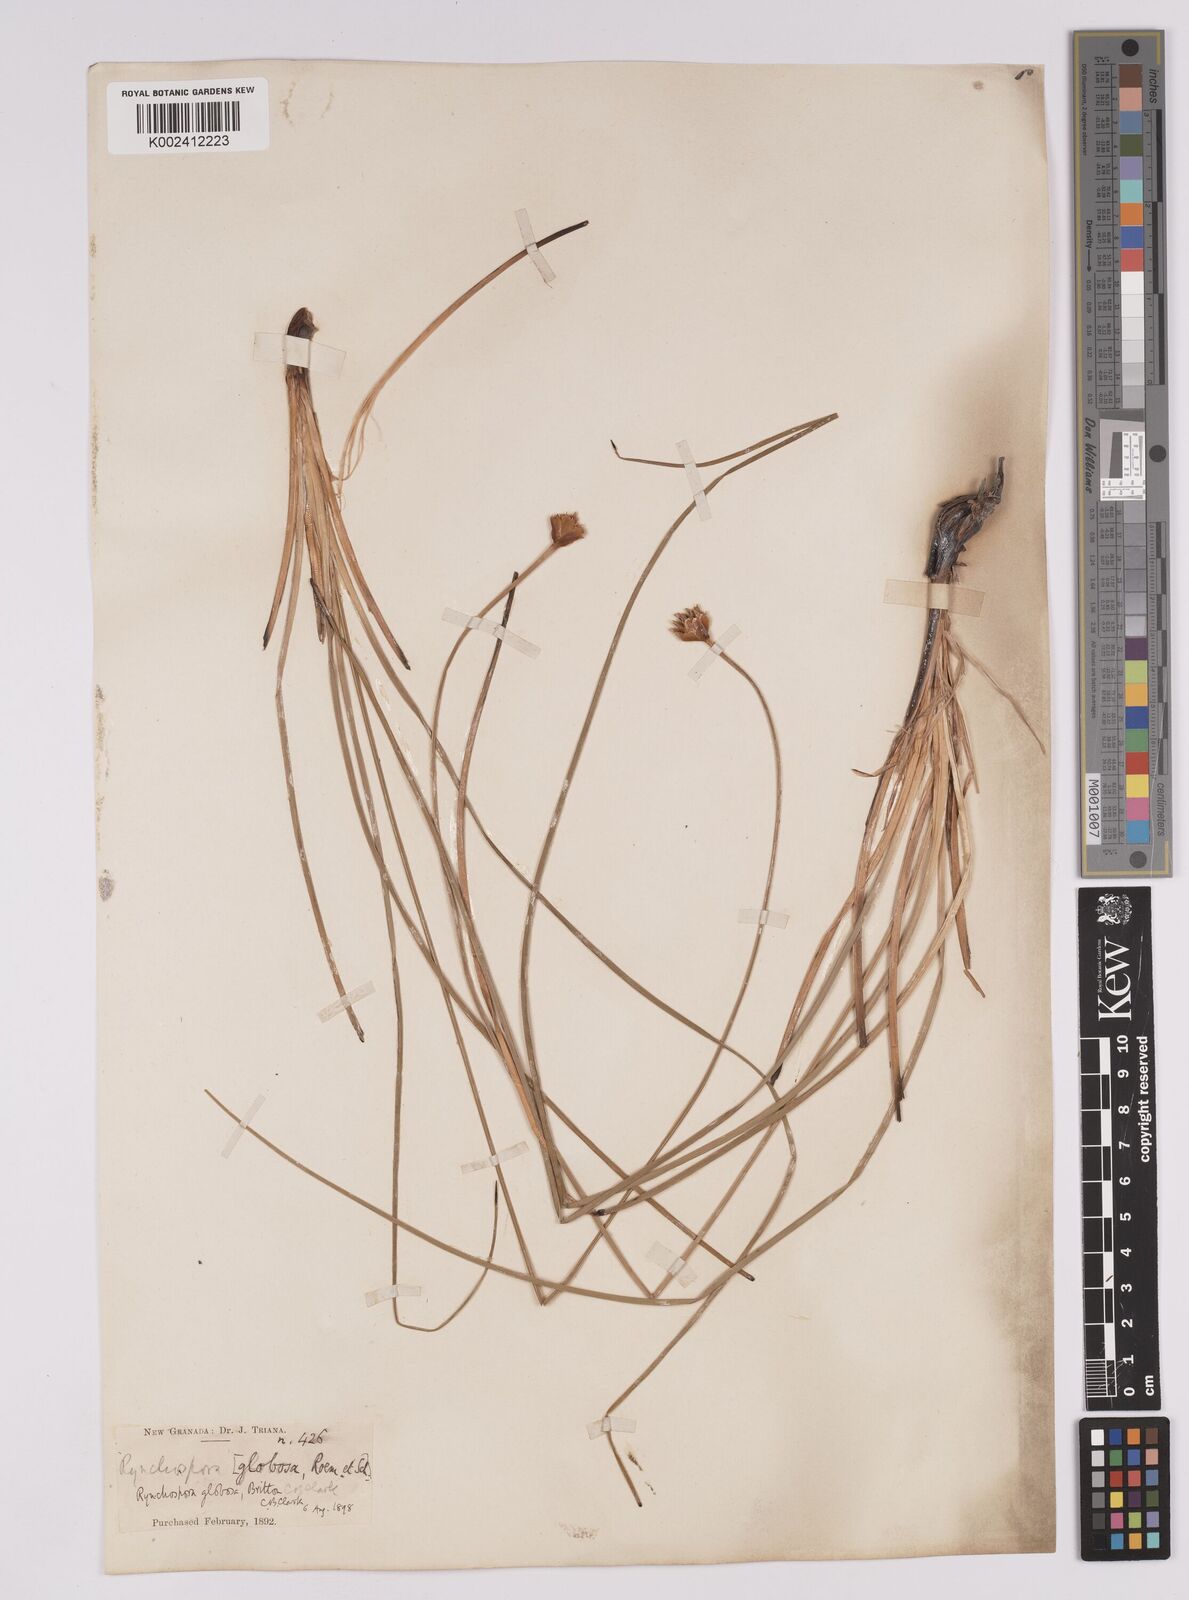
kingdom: Plantae
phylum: Tracheophyta
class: Liliopsida
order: Poales
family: Cyperaceae
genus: Rhynchospora
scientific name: Rhynchospora barbata
